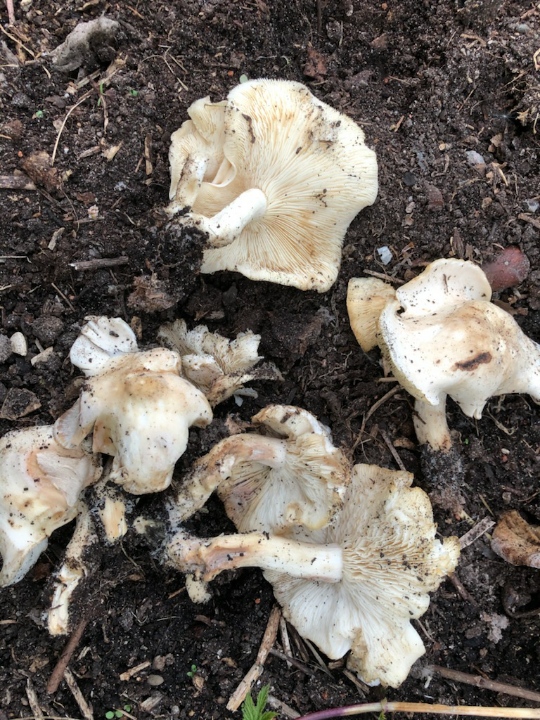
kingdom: Fungi
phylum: Basidiomycota
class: Agaricomycetes
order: Agaricales
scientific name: Agaricales
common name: champignonordenen
